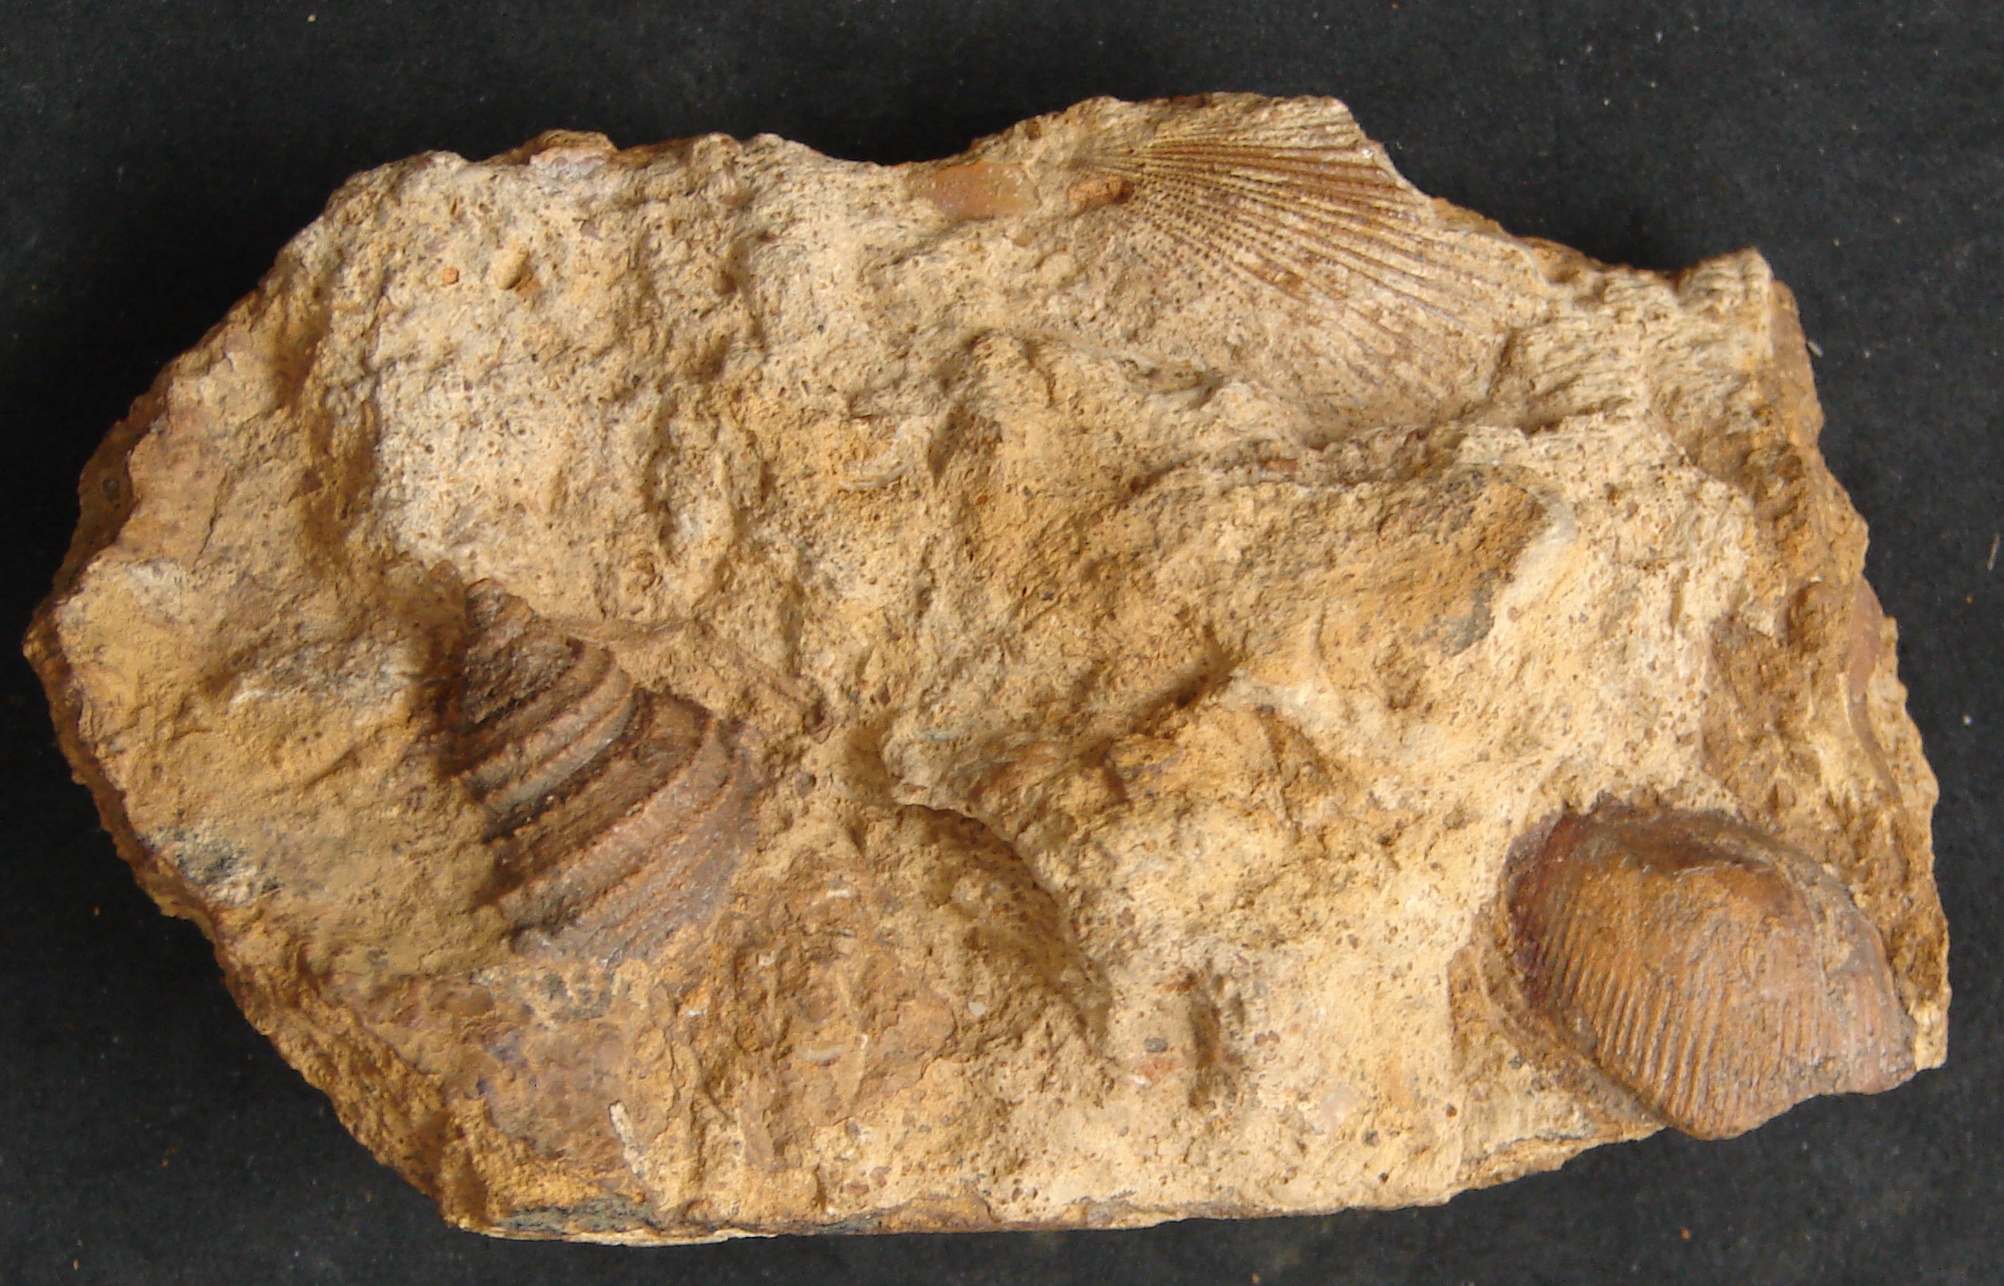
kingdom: Animalia
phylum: Mollusca
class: Gastropoda
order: Seguenziida
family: Eucycloscalidae
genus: Ambercyclus
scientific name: Ambercyclus Turbo ornatus
